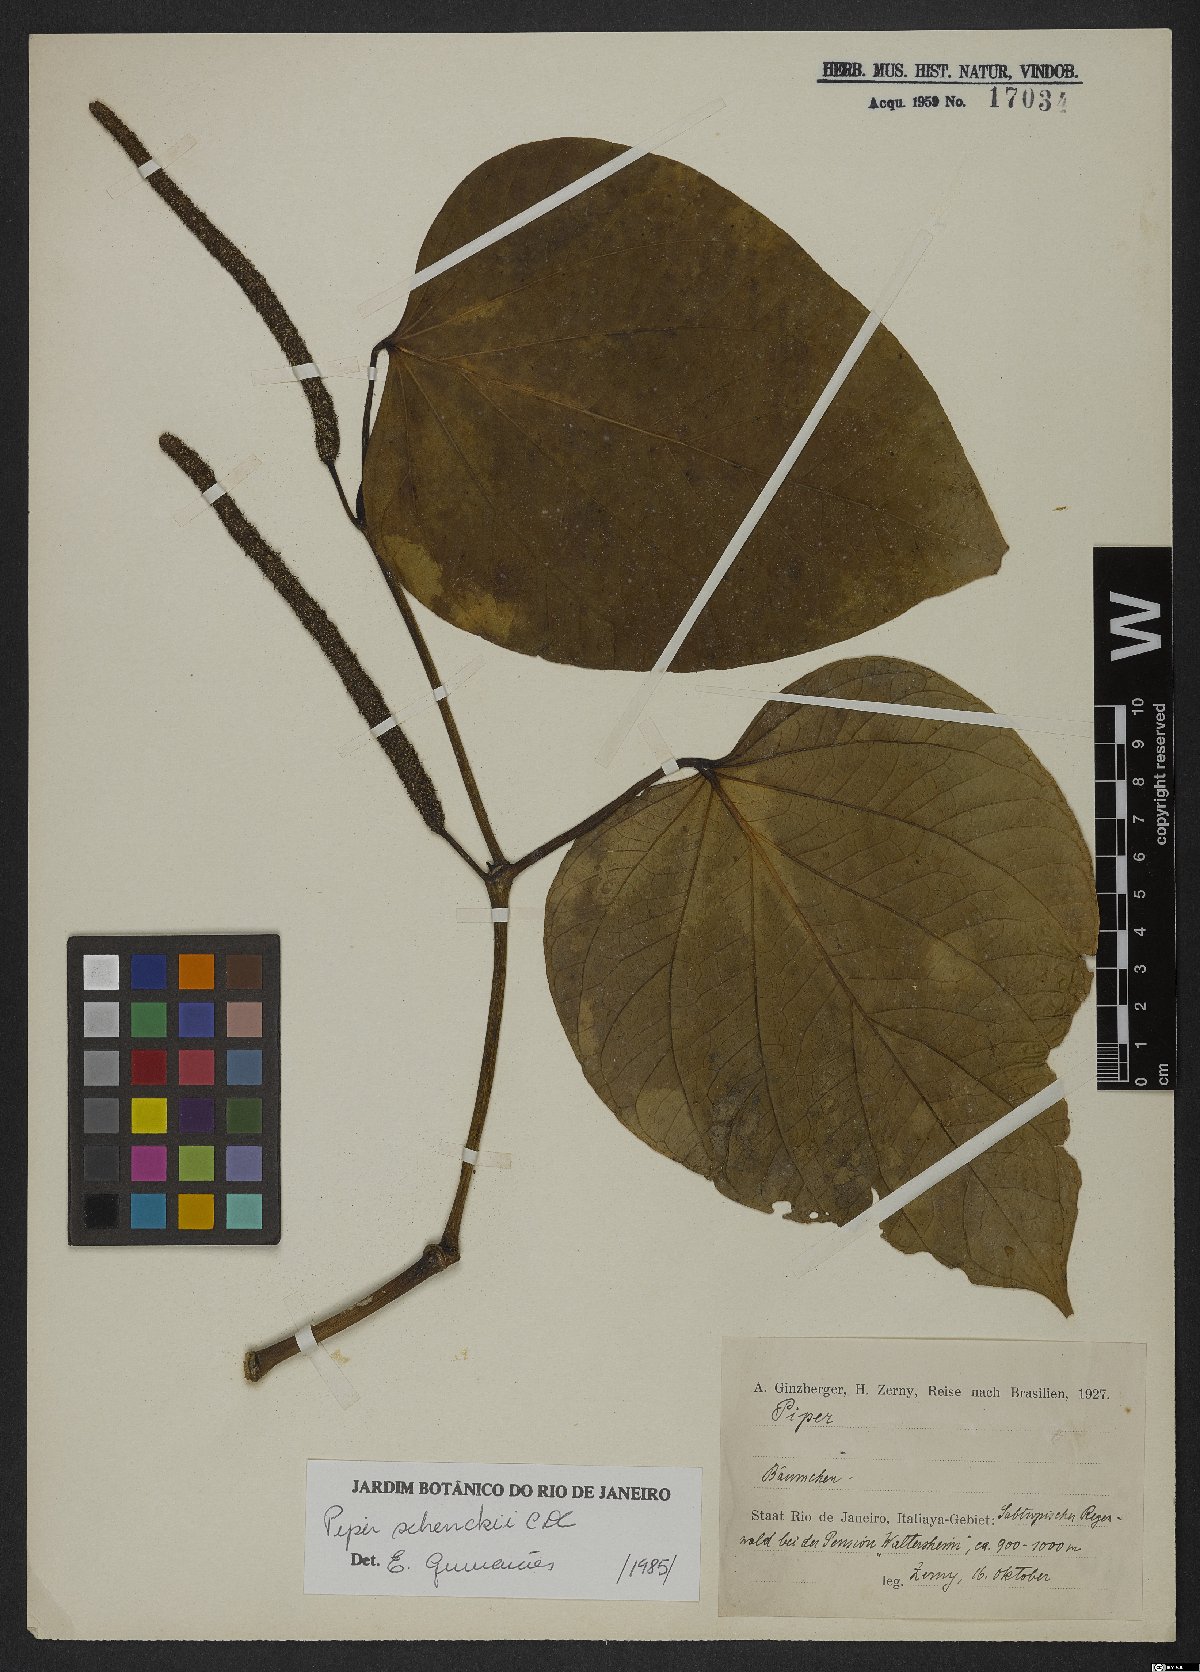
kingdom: Plantae
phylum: Tracheophyta
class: Magnoliopsida
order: Piperales
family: Piperaceae
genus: Piper
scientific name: Piper schenckii
